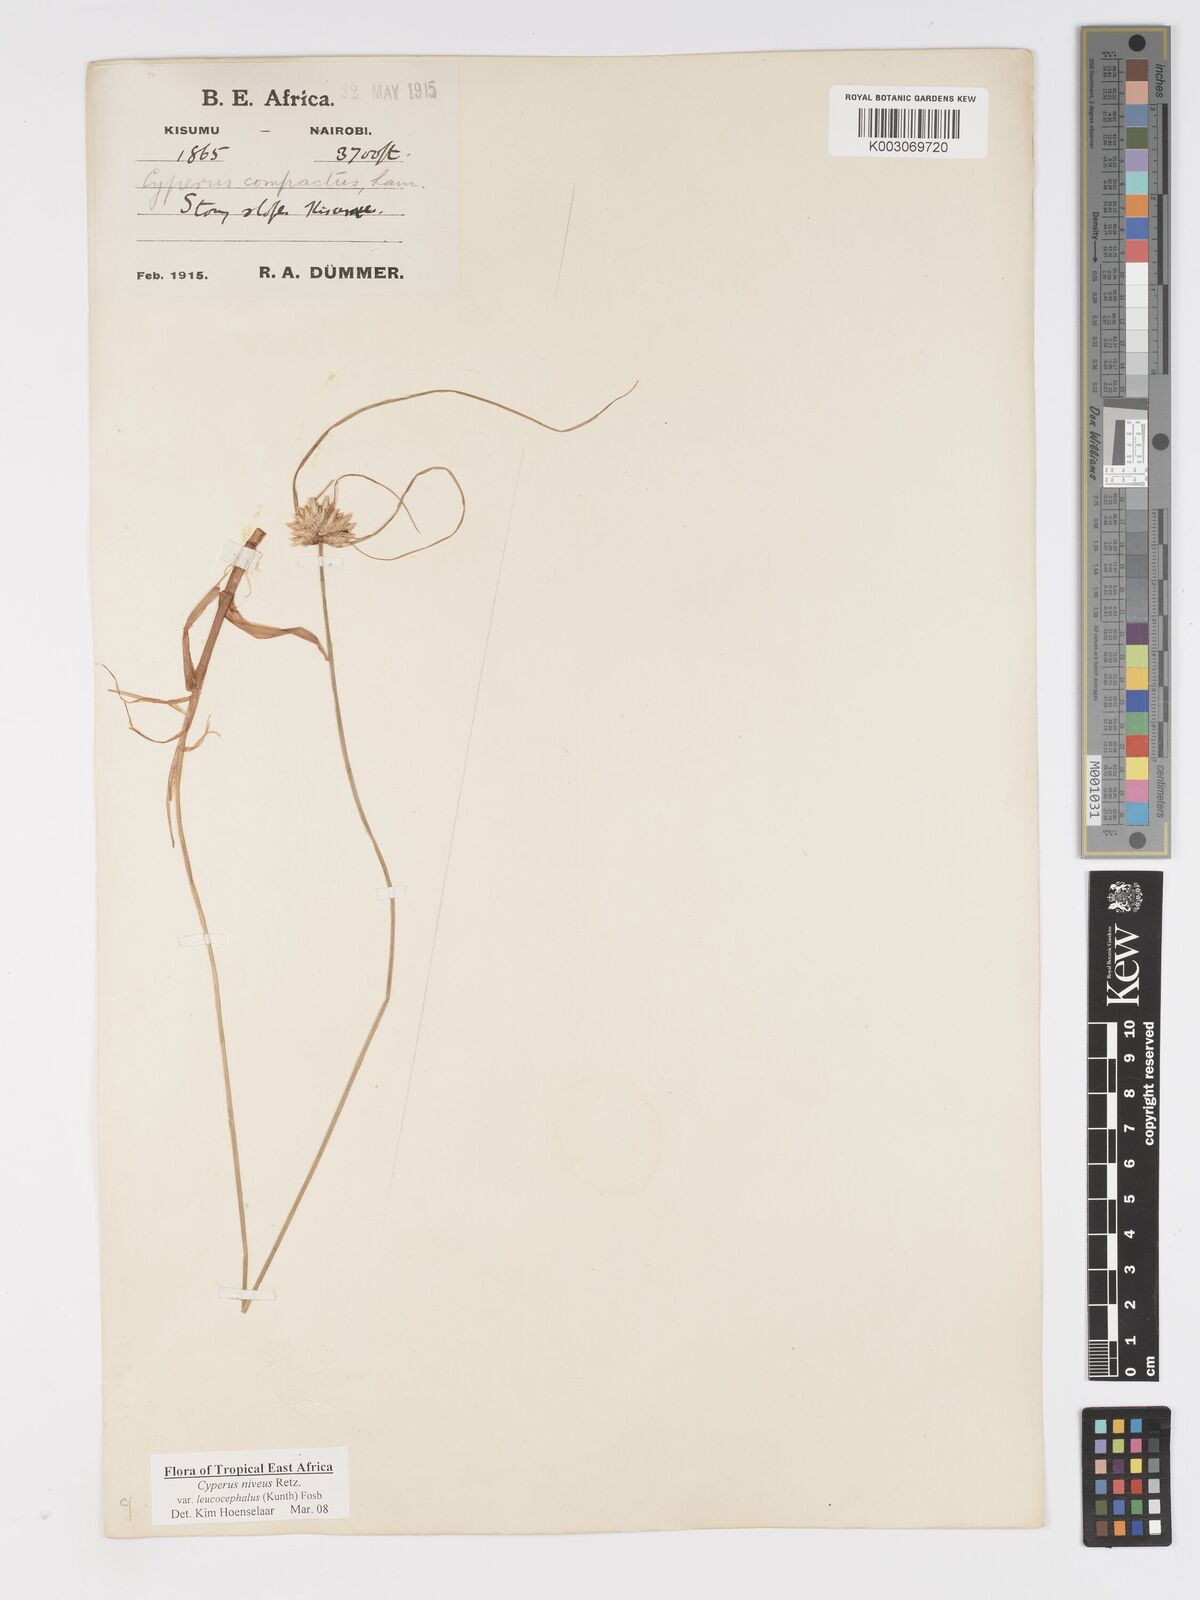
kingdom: Plantae
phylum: Tracheophyta
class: Liliopsida
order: Poales
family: Cyperaceae
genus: Cyperus
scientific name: Cyperus niveus
